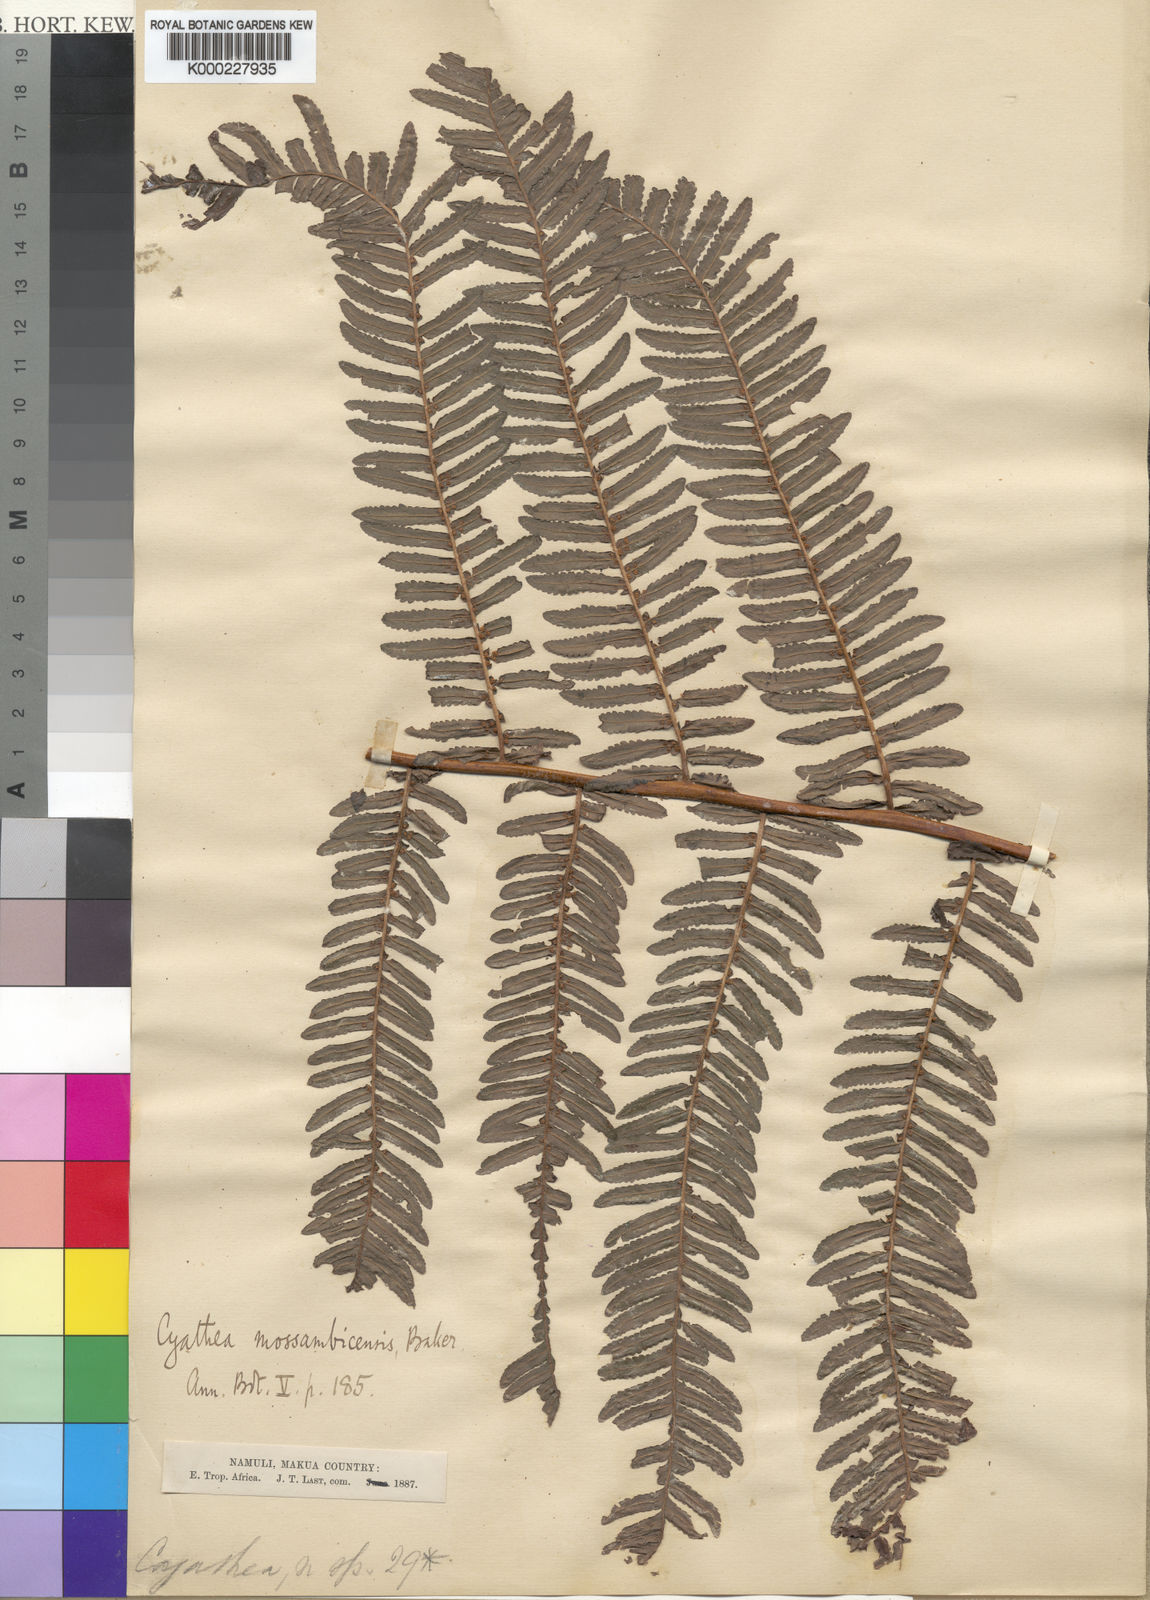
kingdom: Plantae
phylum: Tracheophyta
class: Polypodiopsida
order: Cyatheales
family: Cyatheaceae
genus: Alsophila
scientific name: Alsophila mossambicensis
